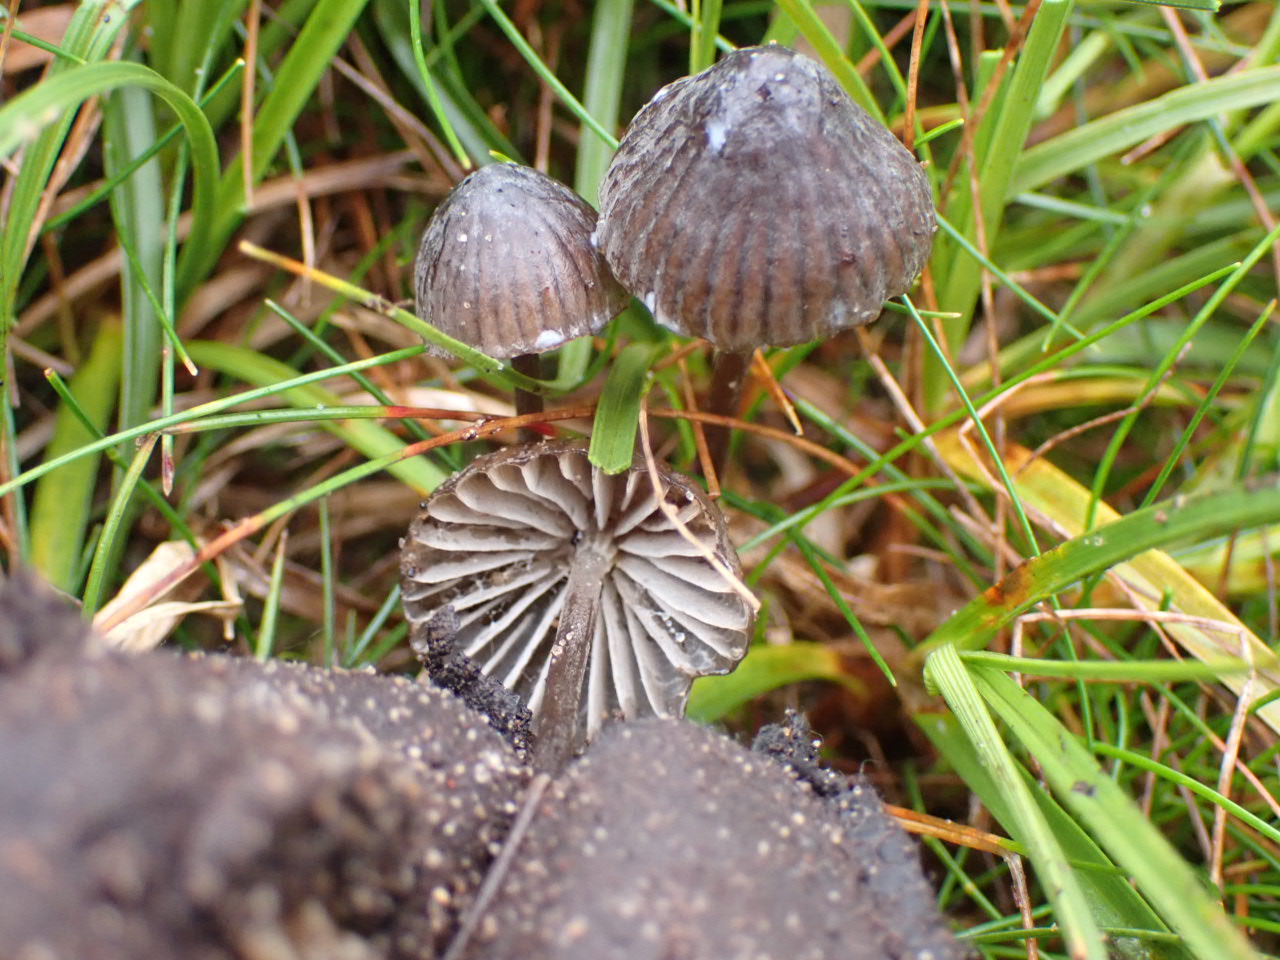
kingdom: Fungi
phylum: Basidiomycota
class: Agaricomycetes
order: Agaricales
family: Mycenaceae
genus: Mycena
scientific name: Mycena galopus
